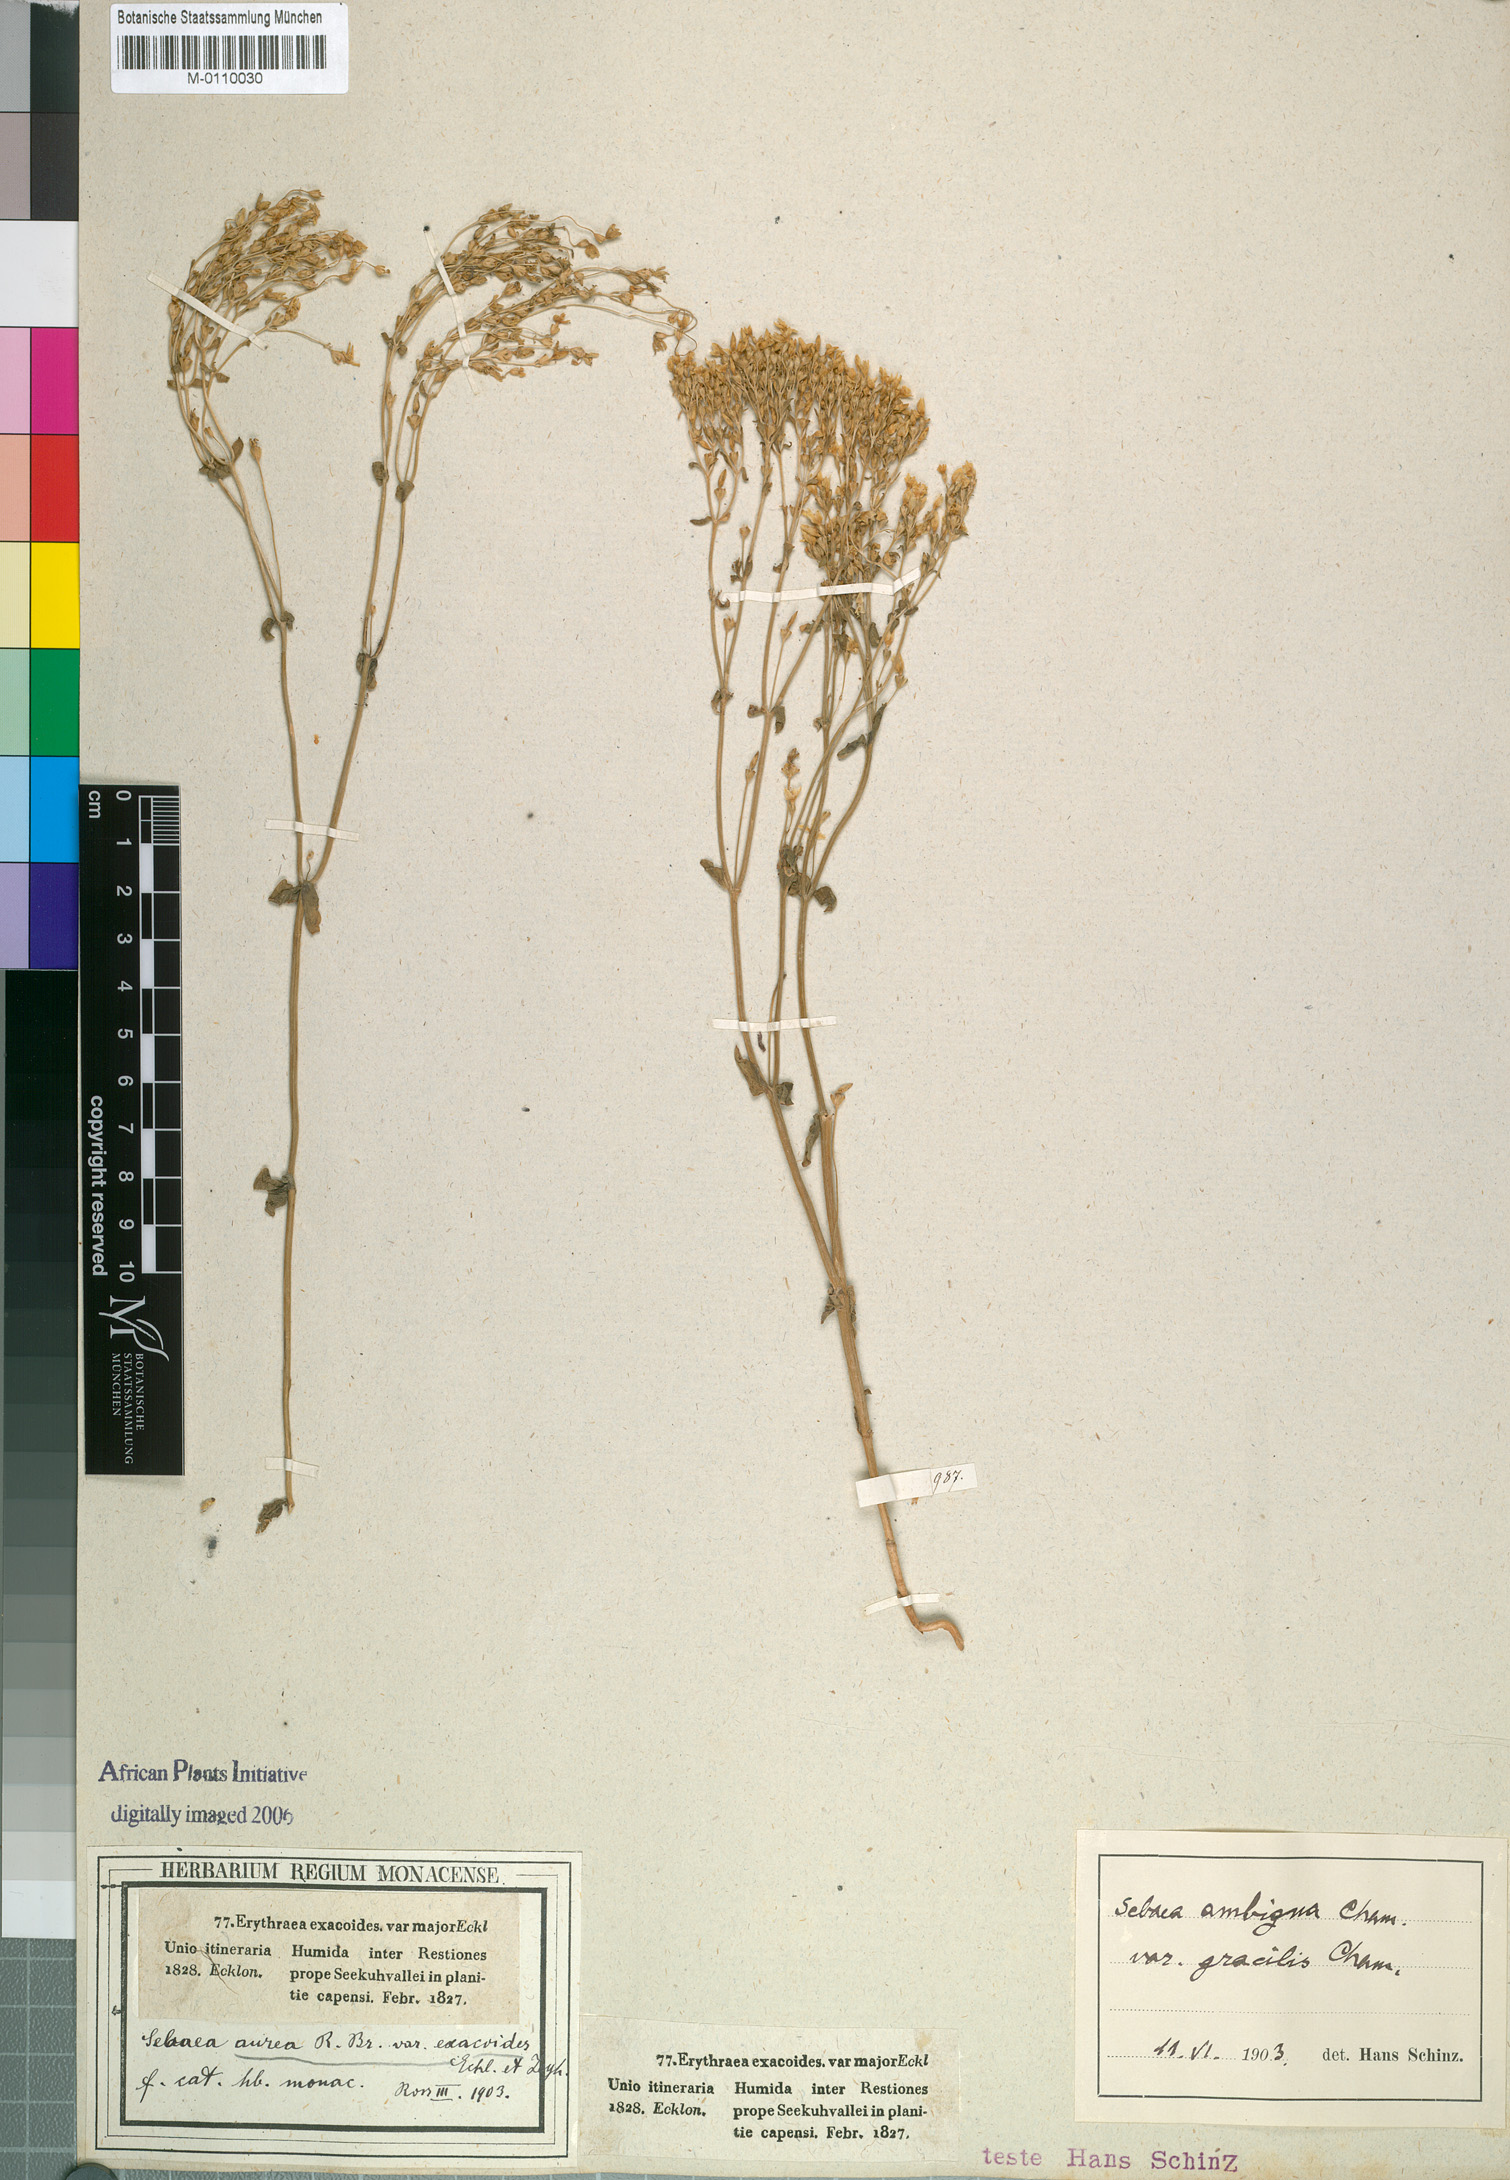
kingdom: Plantae
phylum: Tracheophyta
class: Magnoliopsida
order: Gentianales
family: Gentianaceae
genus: Sebaea
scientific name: Sebaea ambigua
